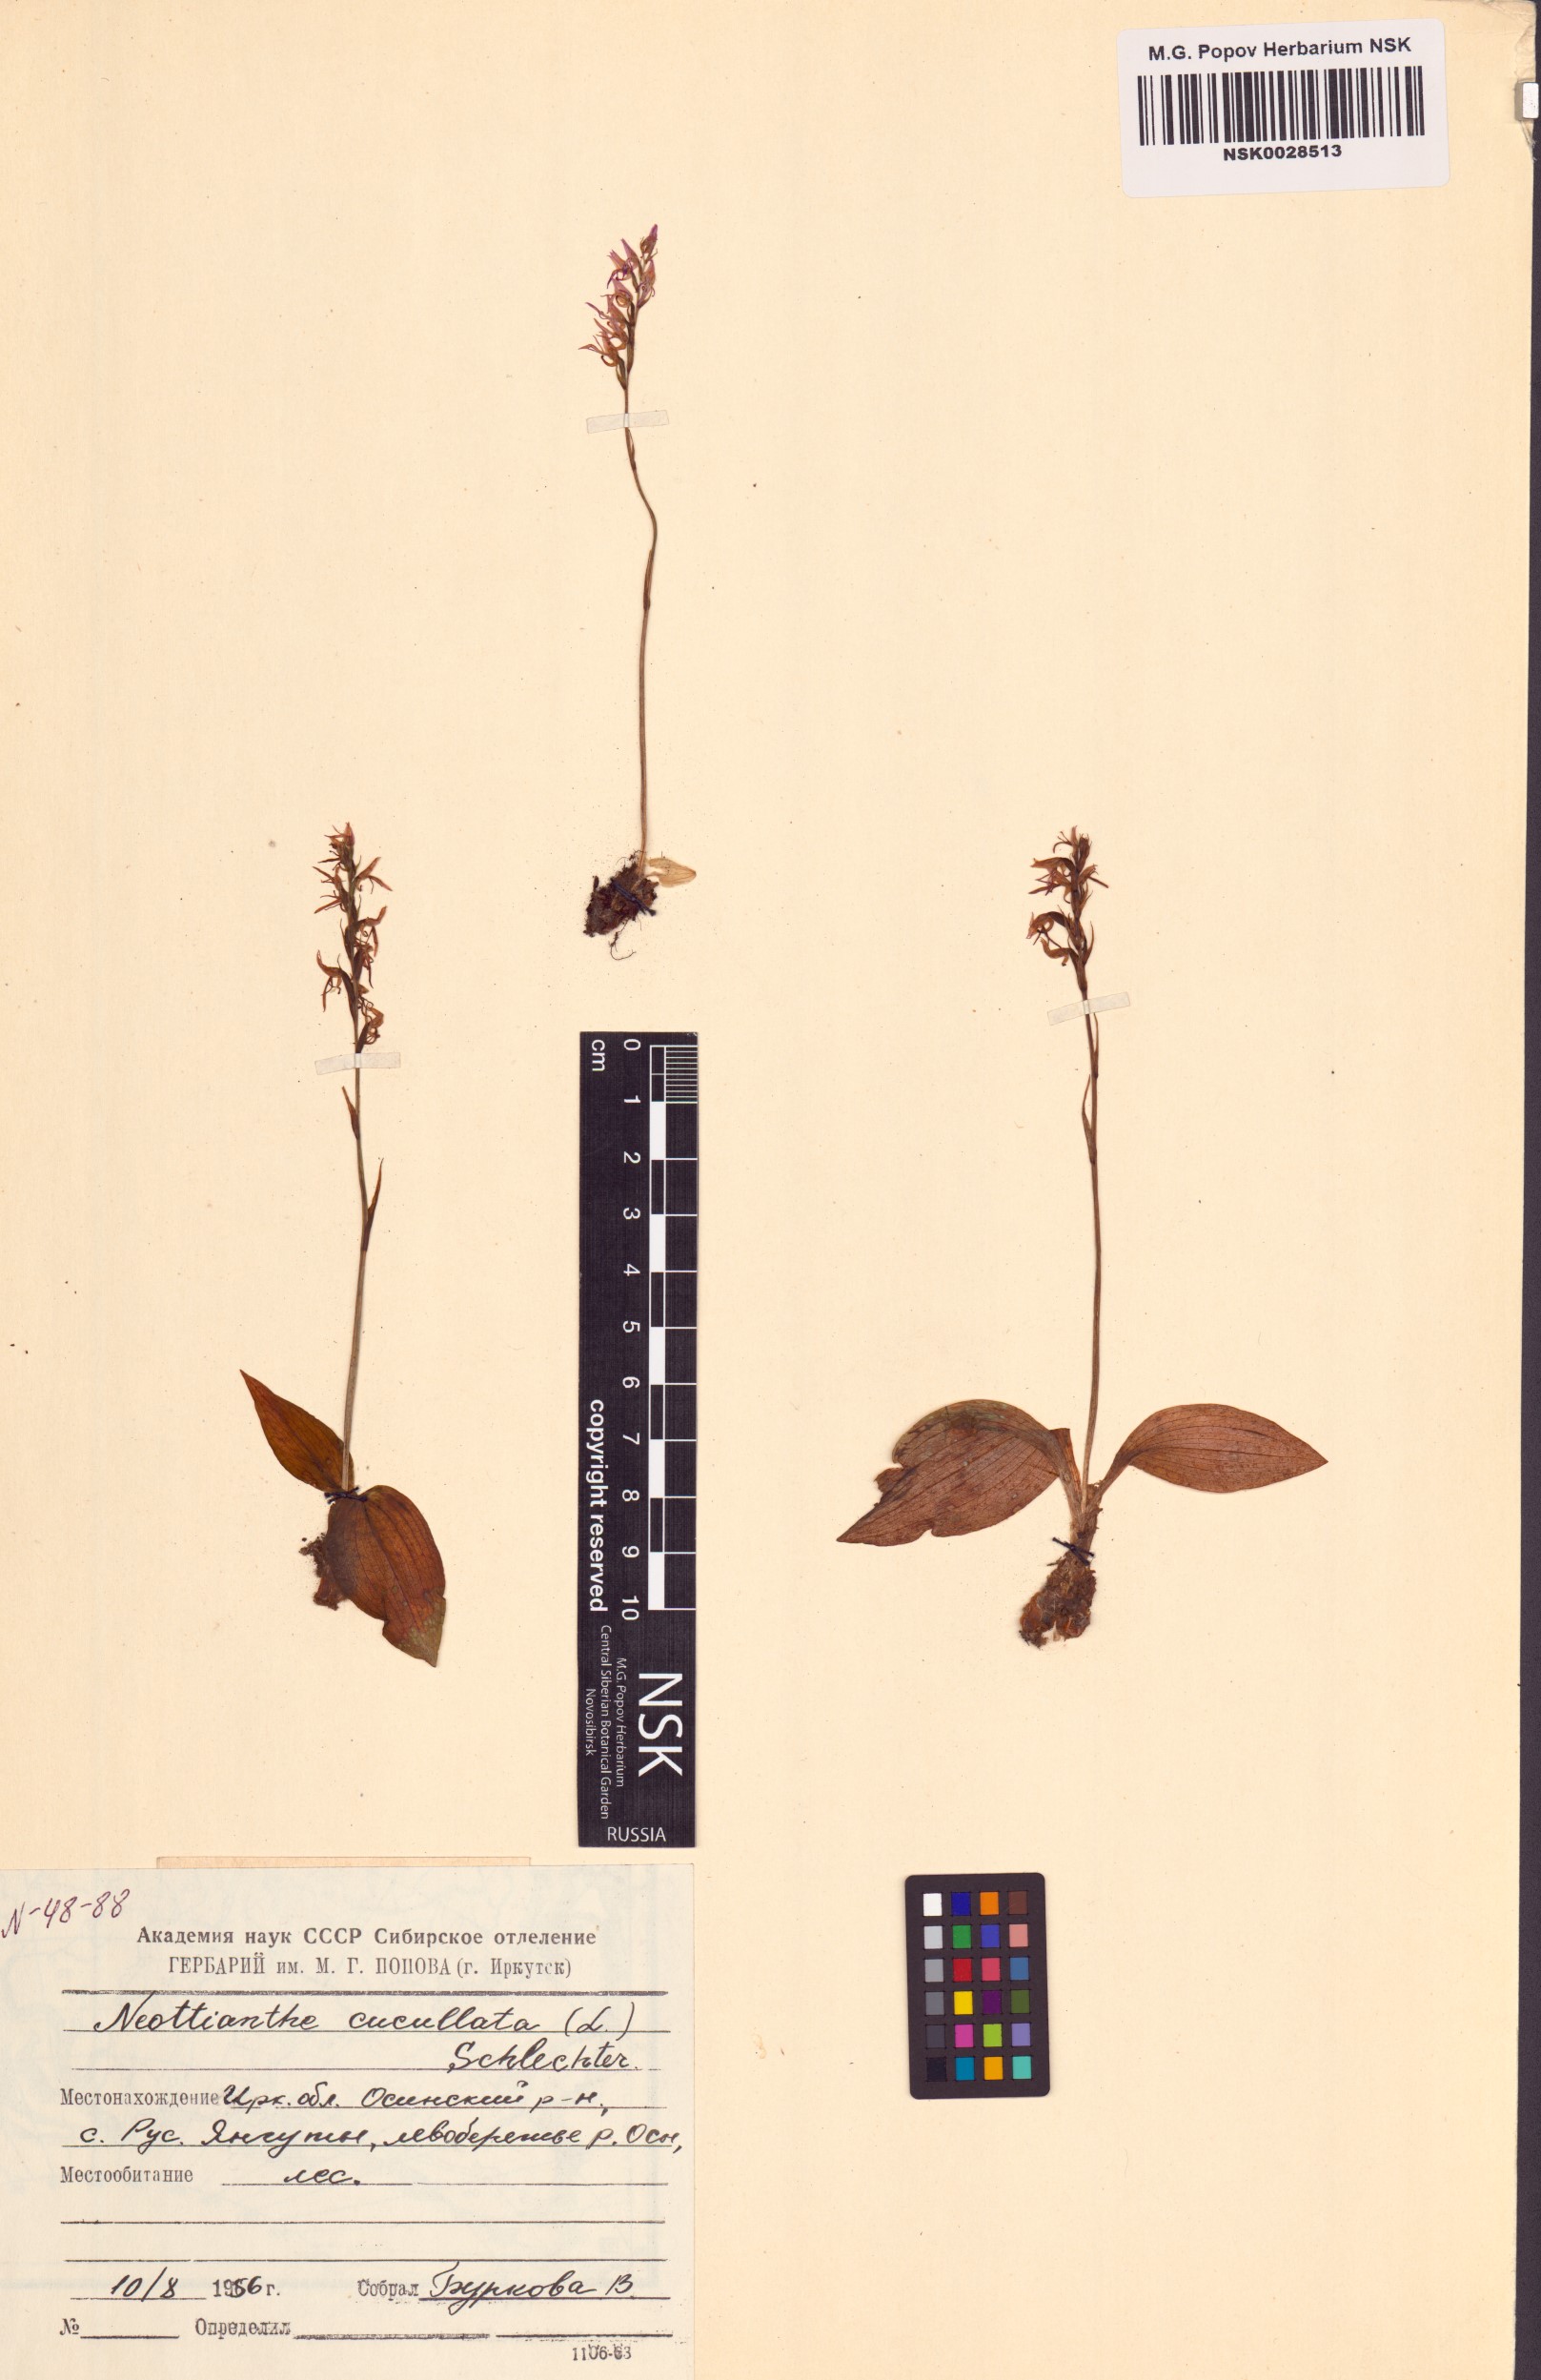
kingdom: Plantae
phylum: Tracheophyta
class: Liliopsida
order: Asparagales
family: Orchidaceae
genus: Hemipilia
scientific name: Hemipilia cucullata
